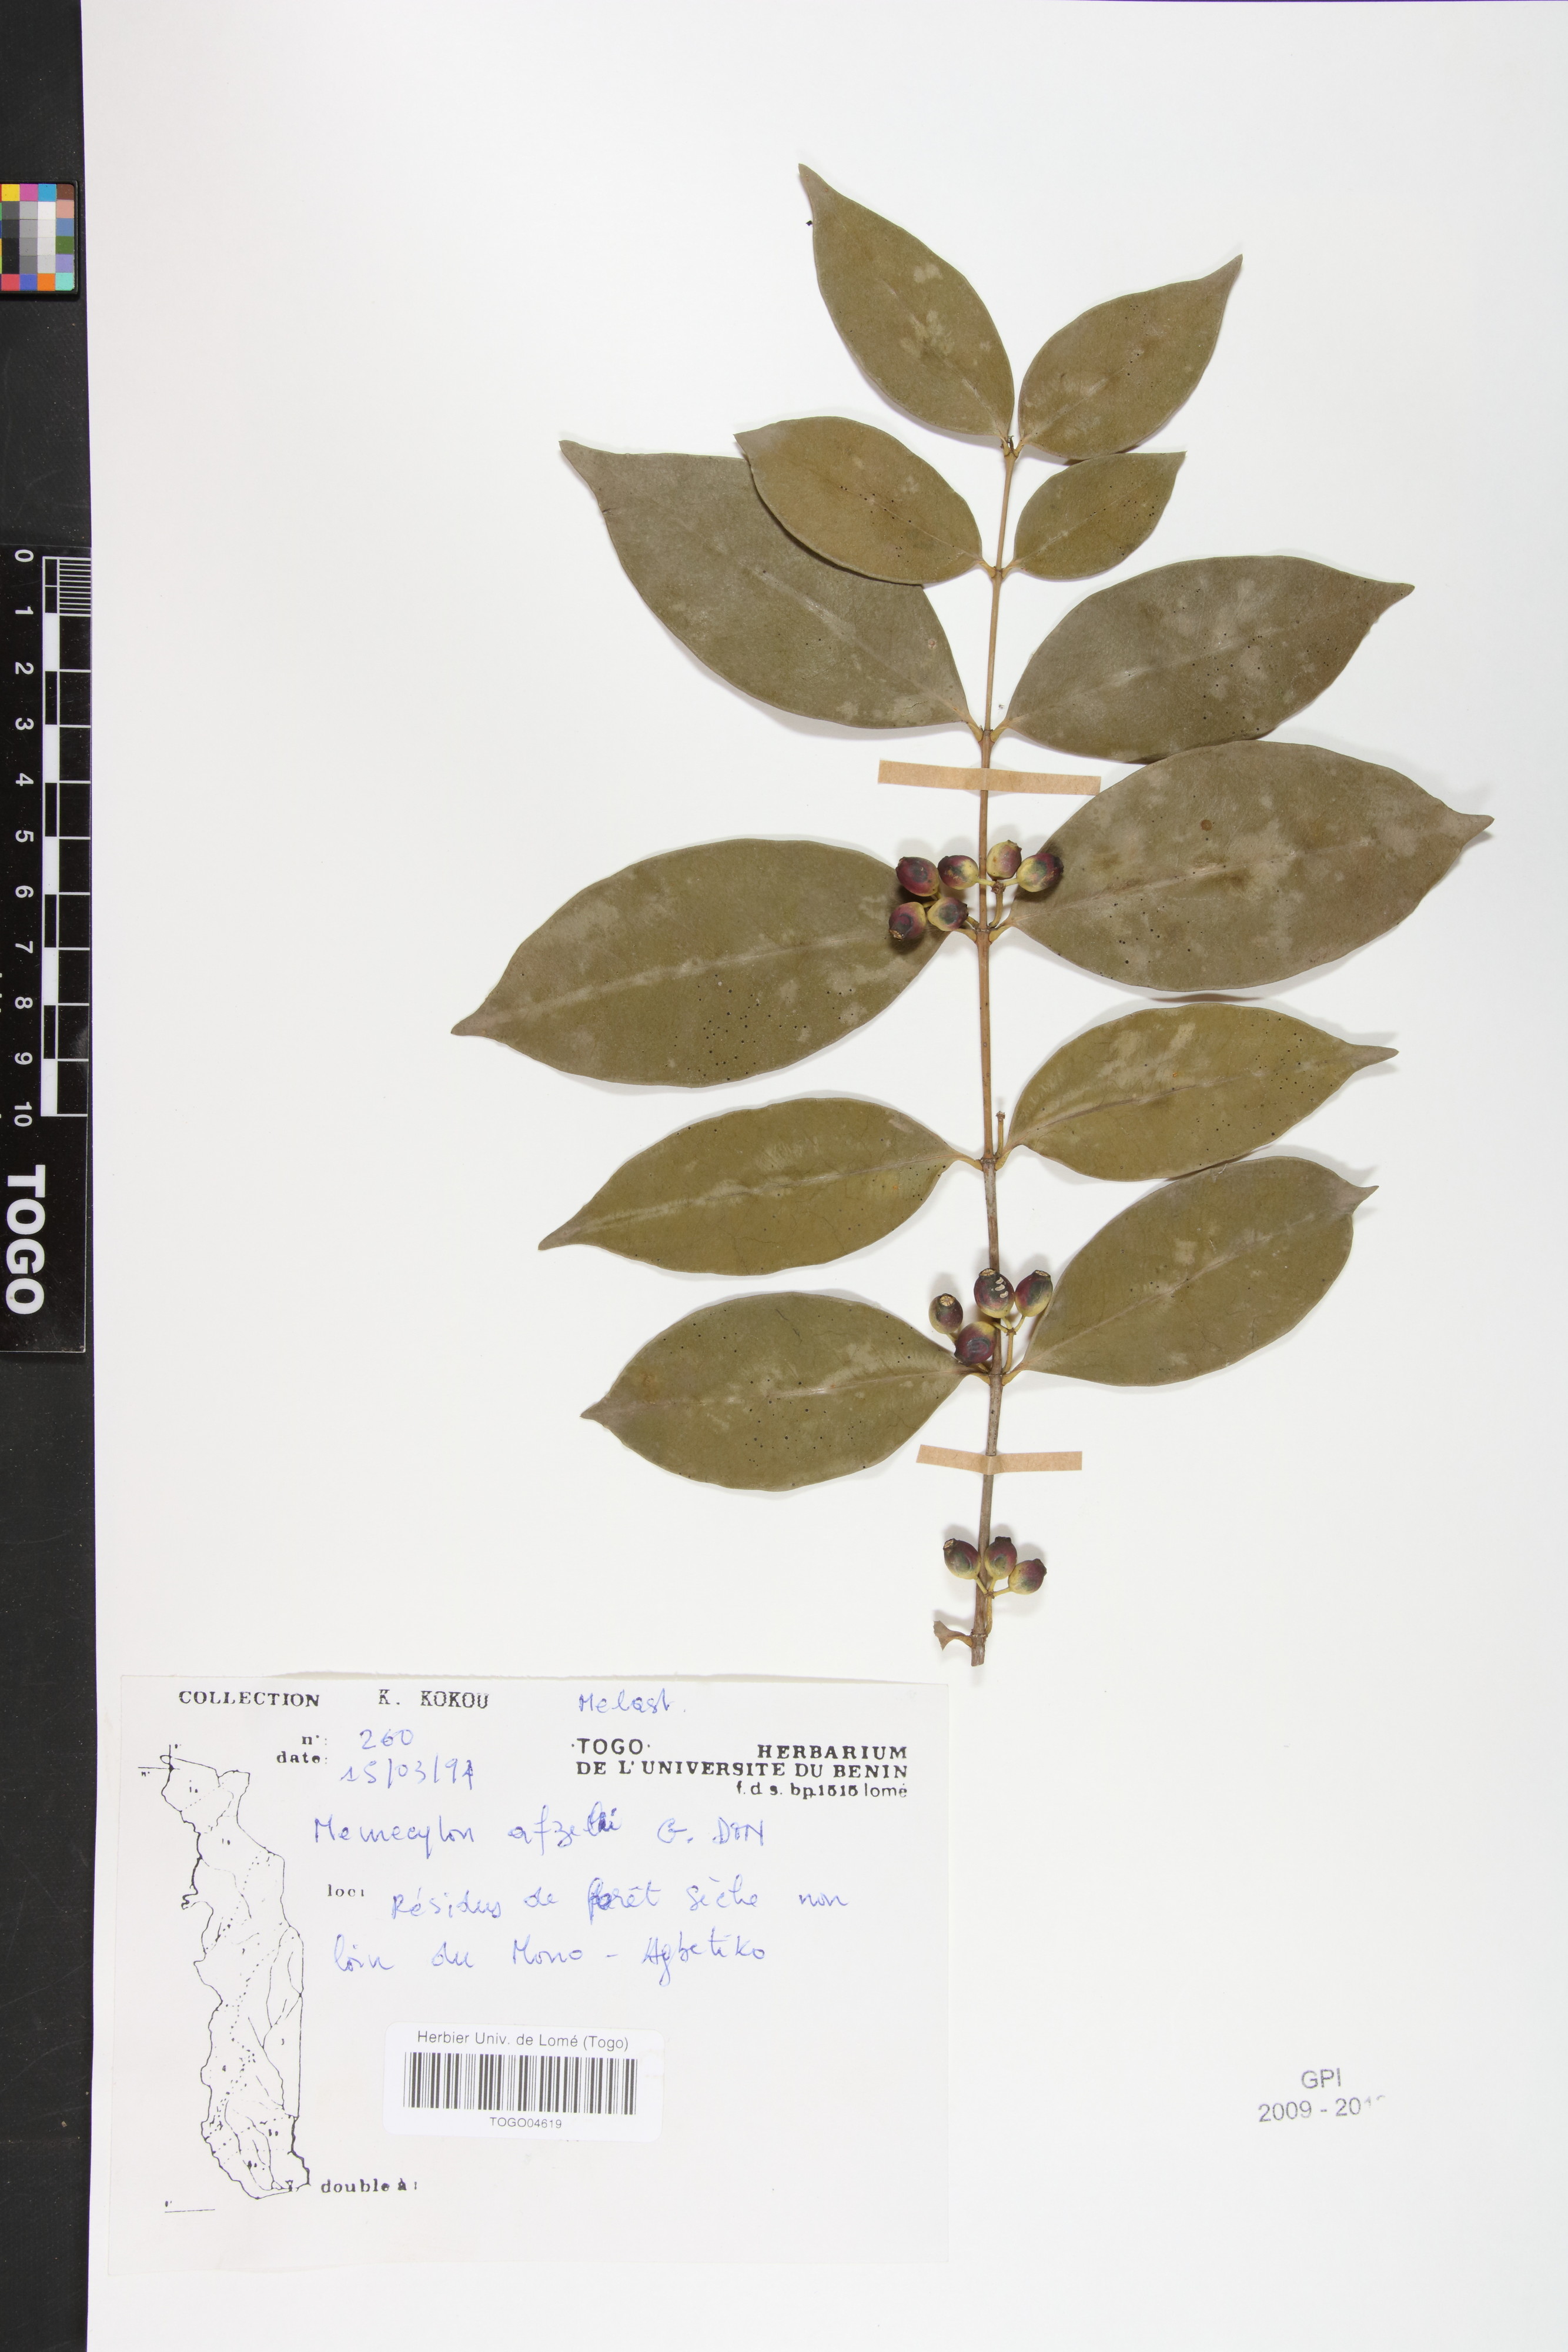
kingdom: Plantae
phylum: Tracheophyta
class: Magnoliopsida
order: Myrtales
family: Melastomataceae
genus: Memecylon
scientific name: Memecylon afzelii
